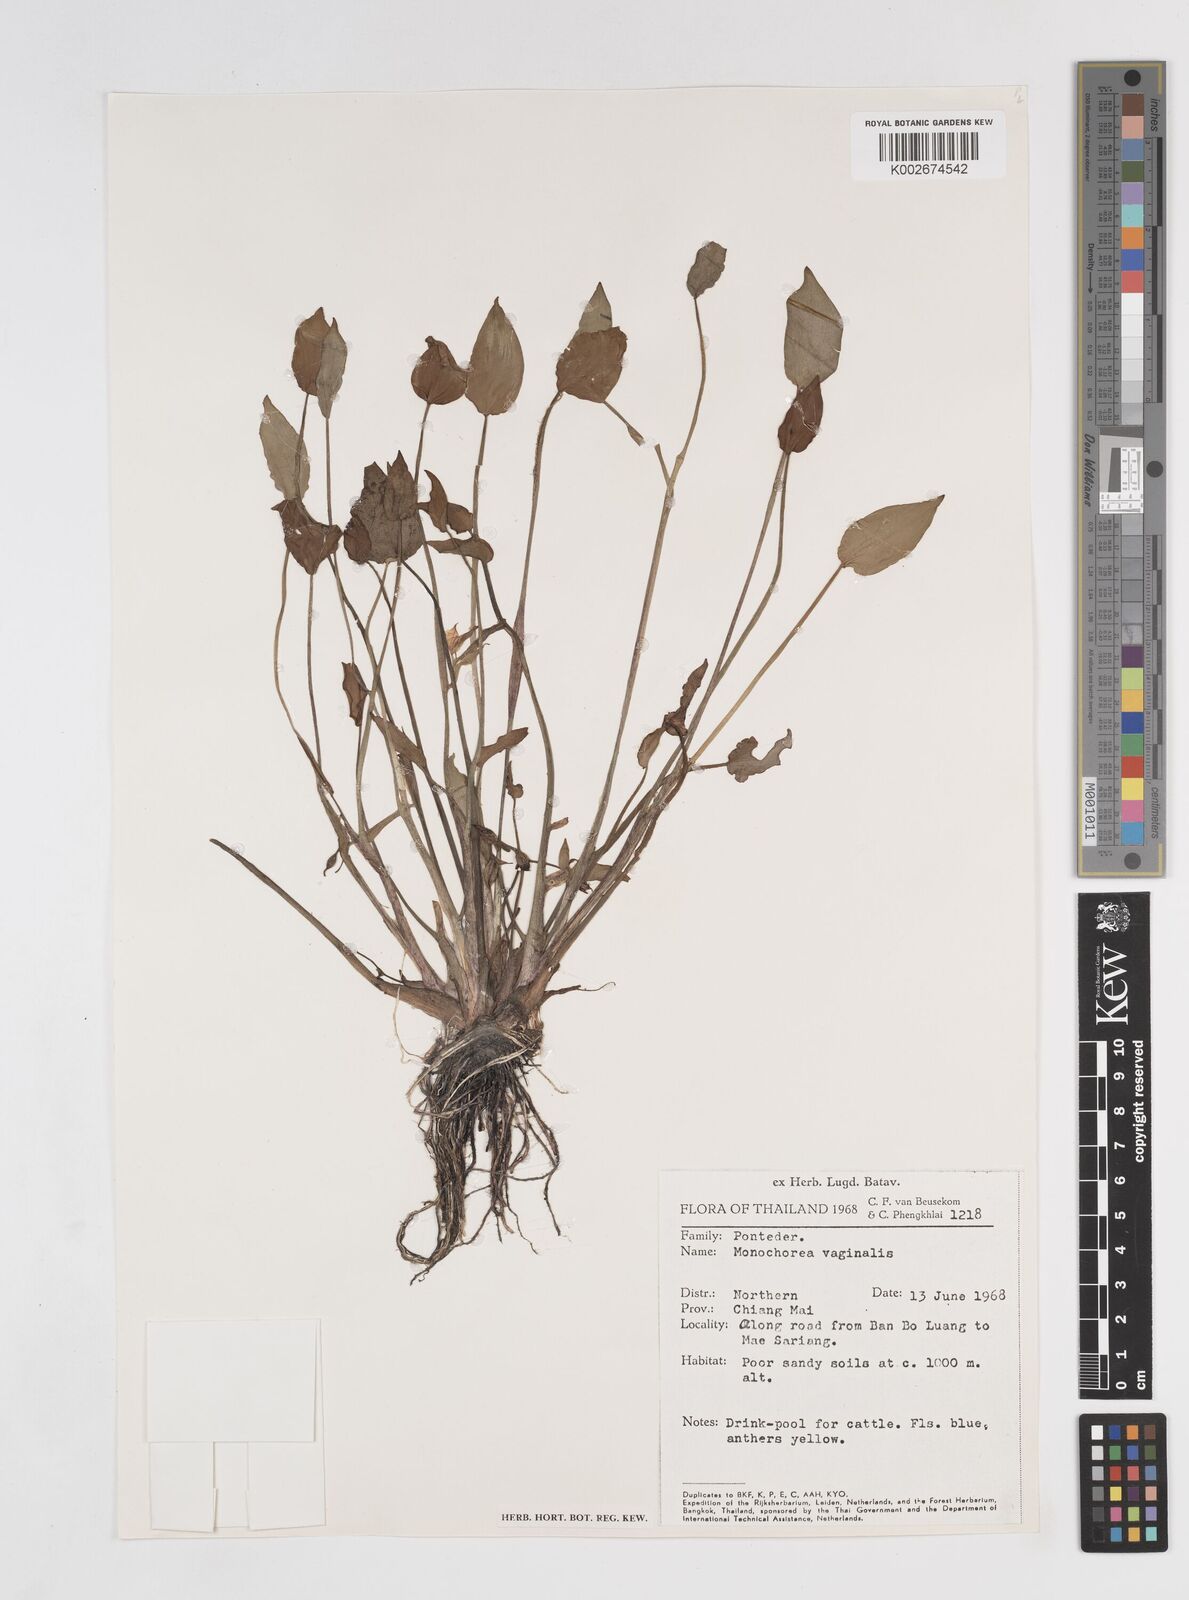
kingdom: Plantae
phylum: Tracheophyta
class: Liliopsida
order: Commelinales
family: Pontederiaceae
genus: Pontederia
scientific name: Pontederia vaginalis
